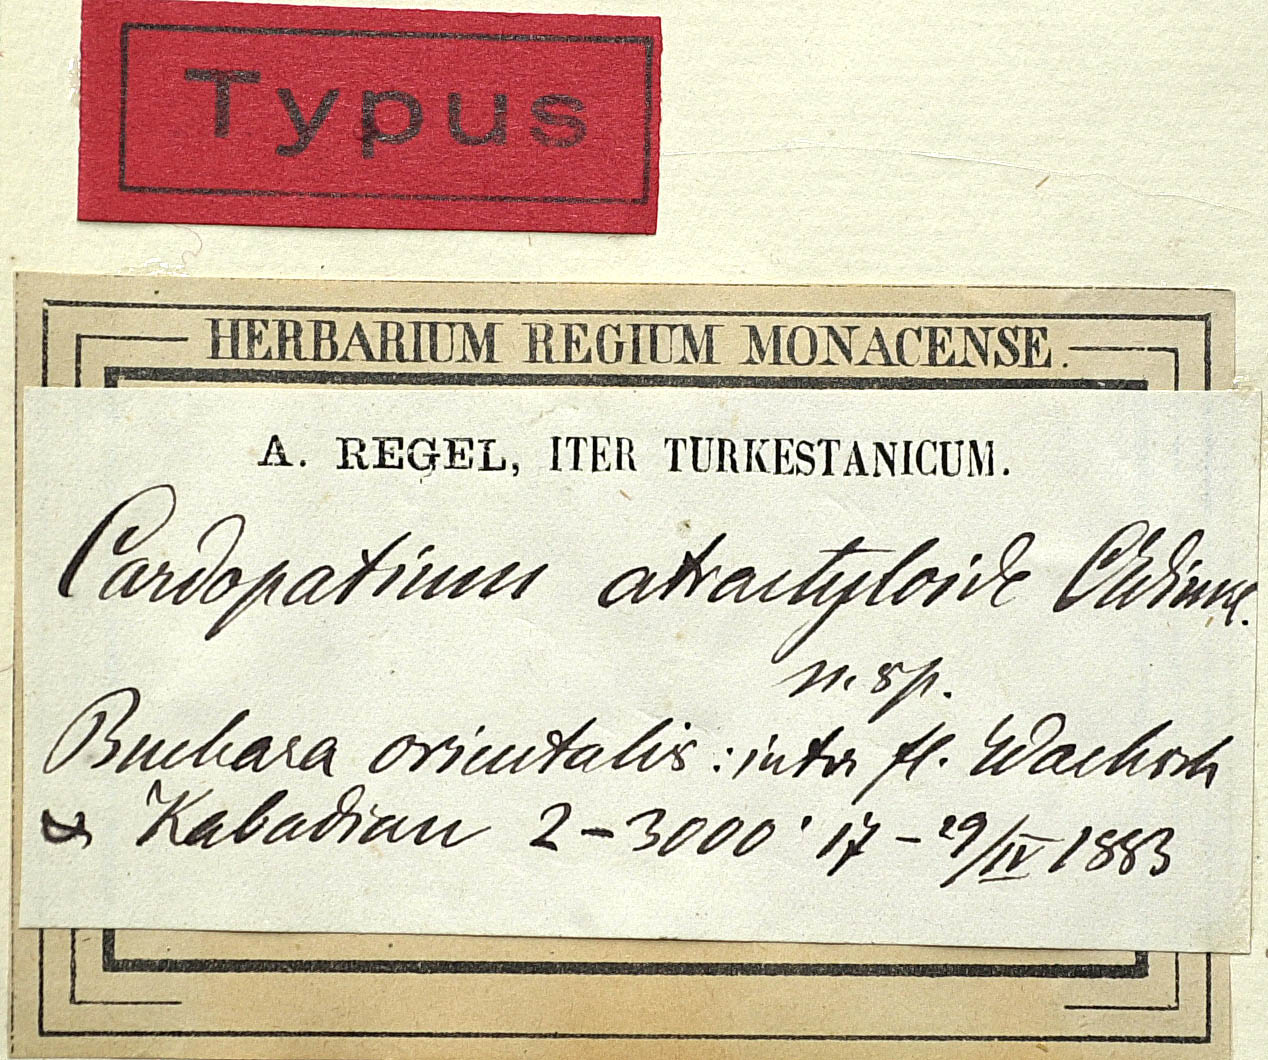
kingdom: Plantae
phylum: Tracheophyta
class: Magnoliopsida
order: Asterales
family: Asteraceae
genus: Cousiniopsis
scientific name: Cousiniopsis atractyloides
